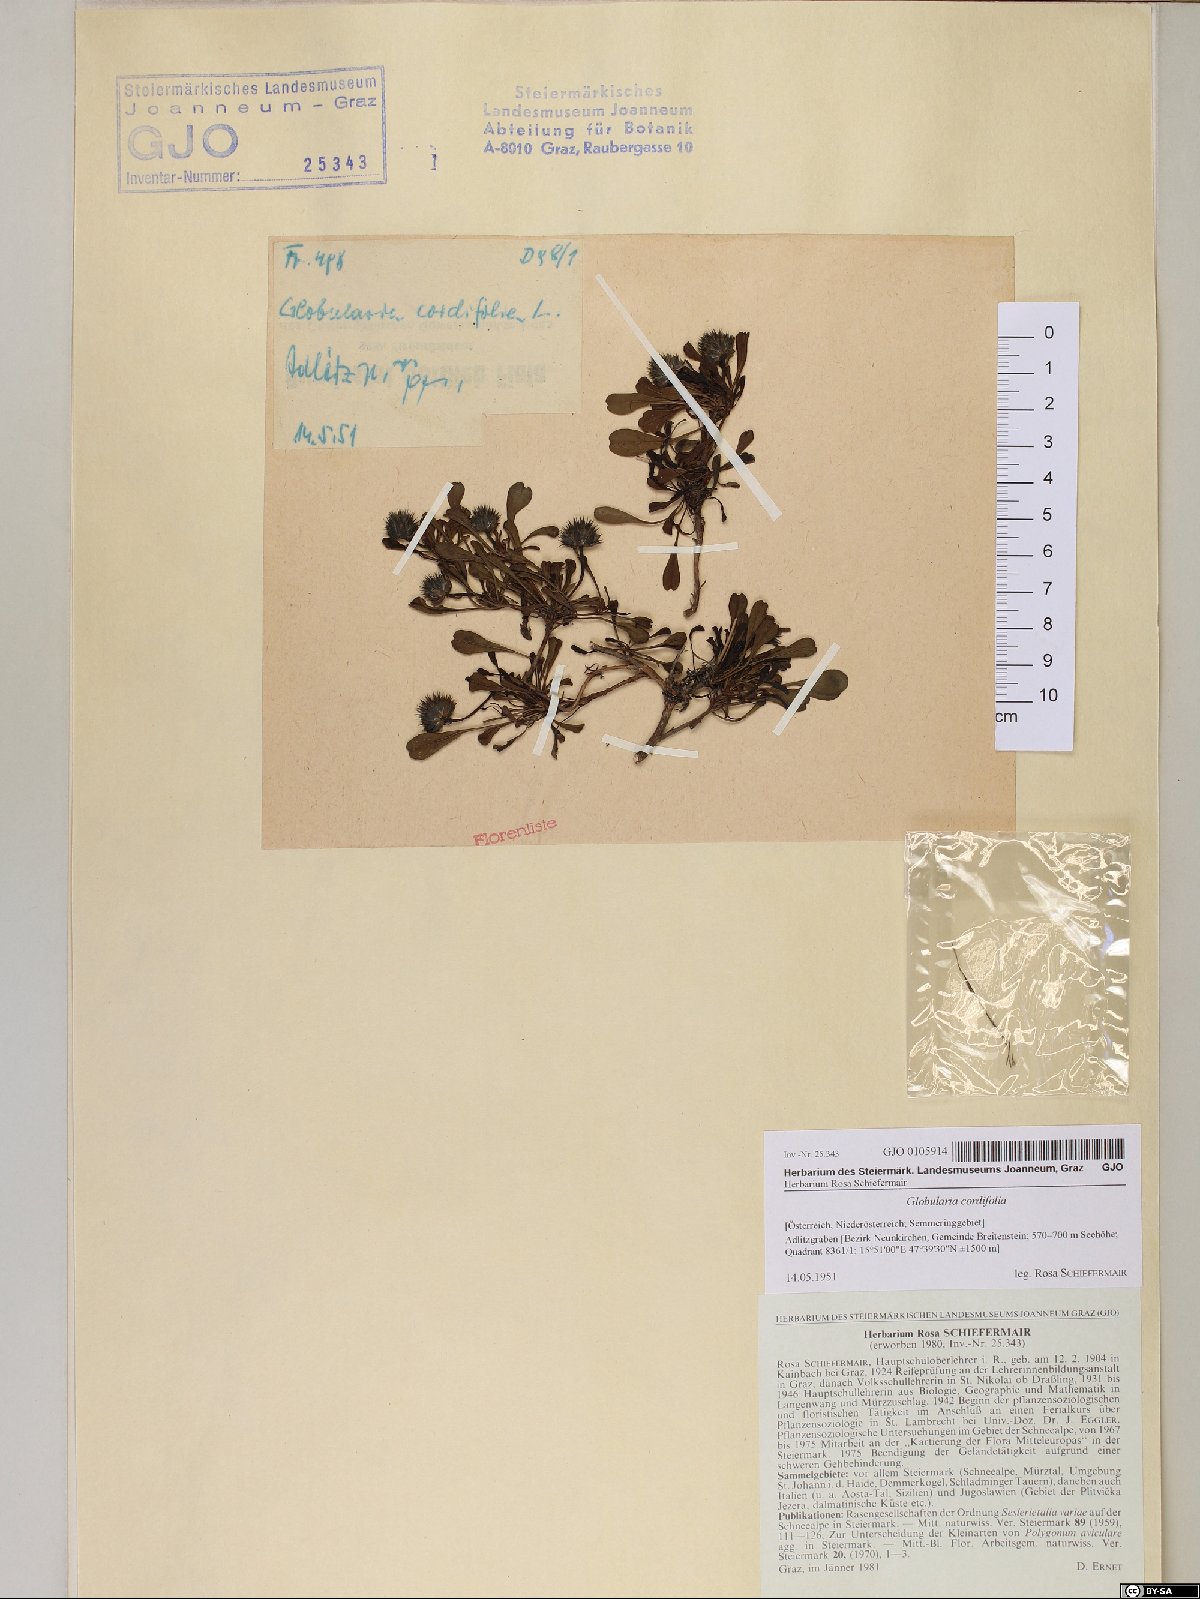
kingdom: Plantae
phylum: Tracheophyta
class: Magnoliopsida
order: Lamiales
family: Plantaginaceae
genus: Globularia
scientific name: Globularia cordifolia
